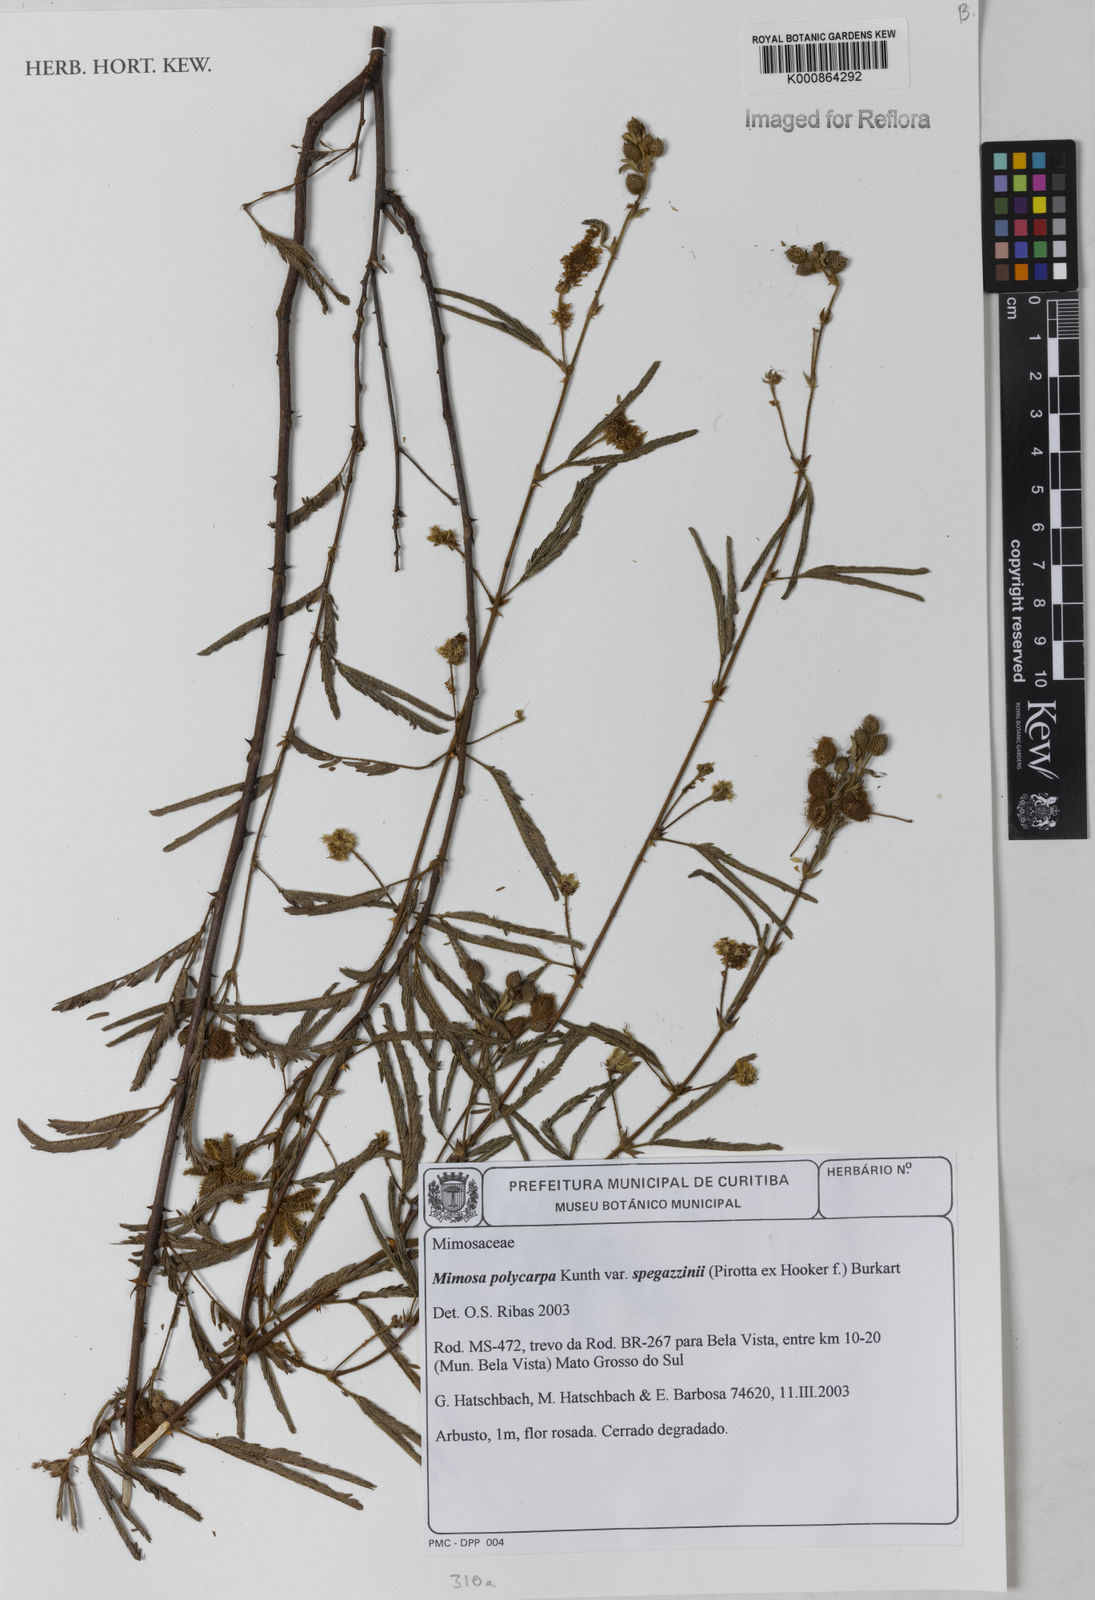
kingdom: Plantae
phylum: Tracheophyta
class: Magnoliopsida
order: Fabales
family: Fabaceae
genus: Mimosa
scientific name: Mimosa polycarpa
